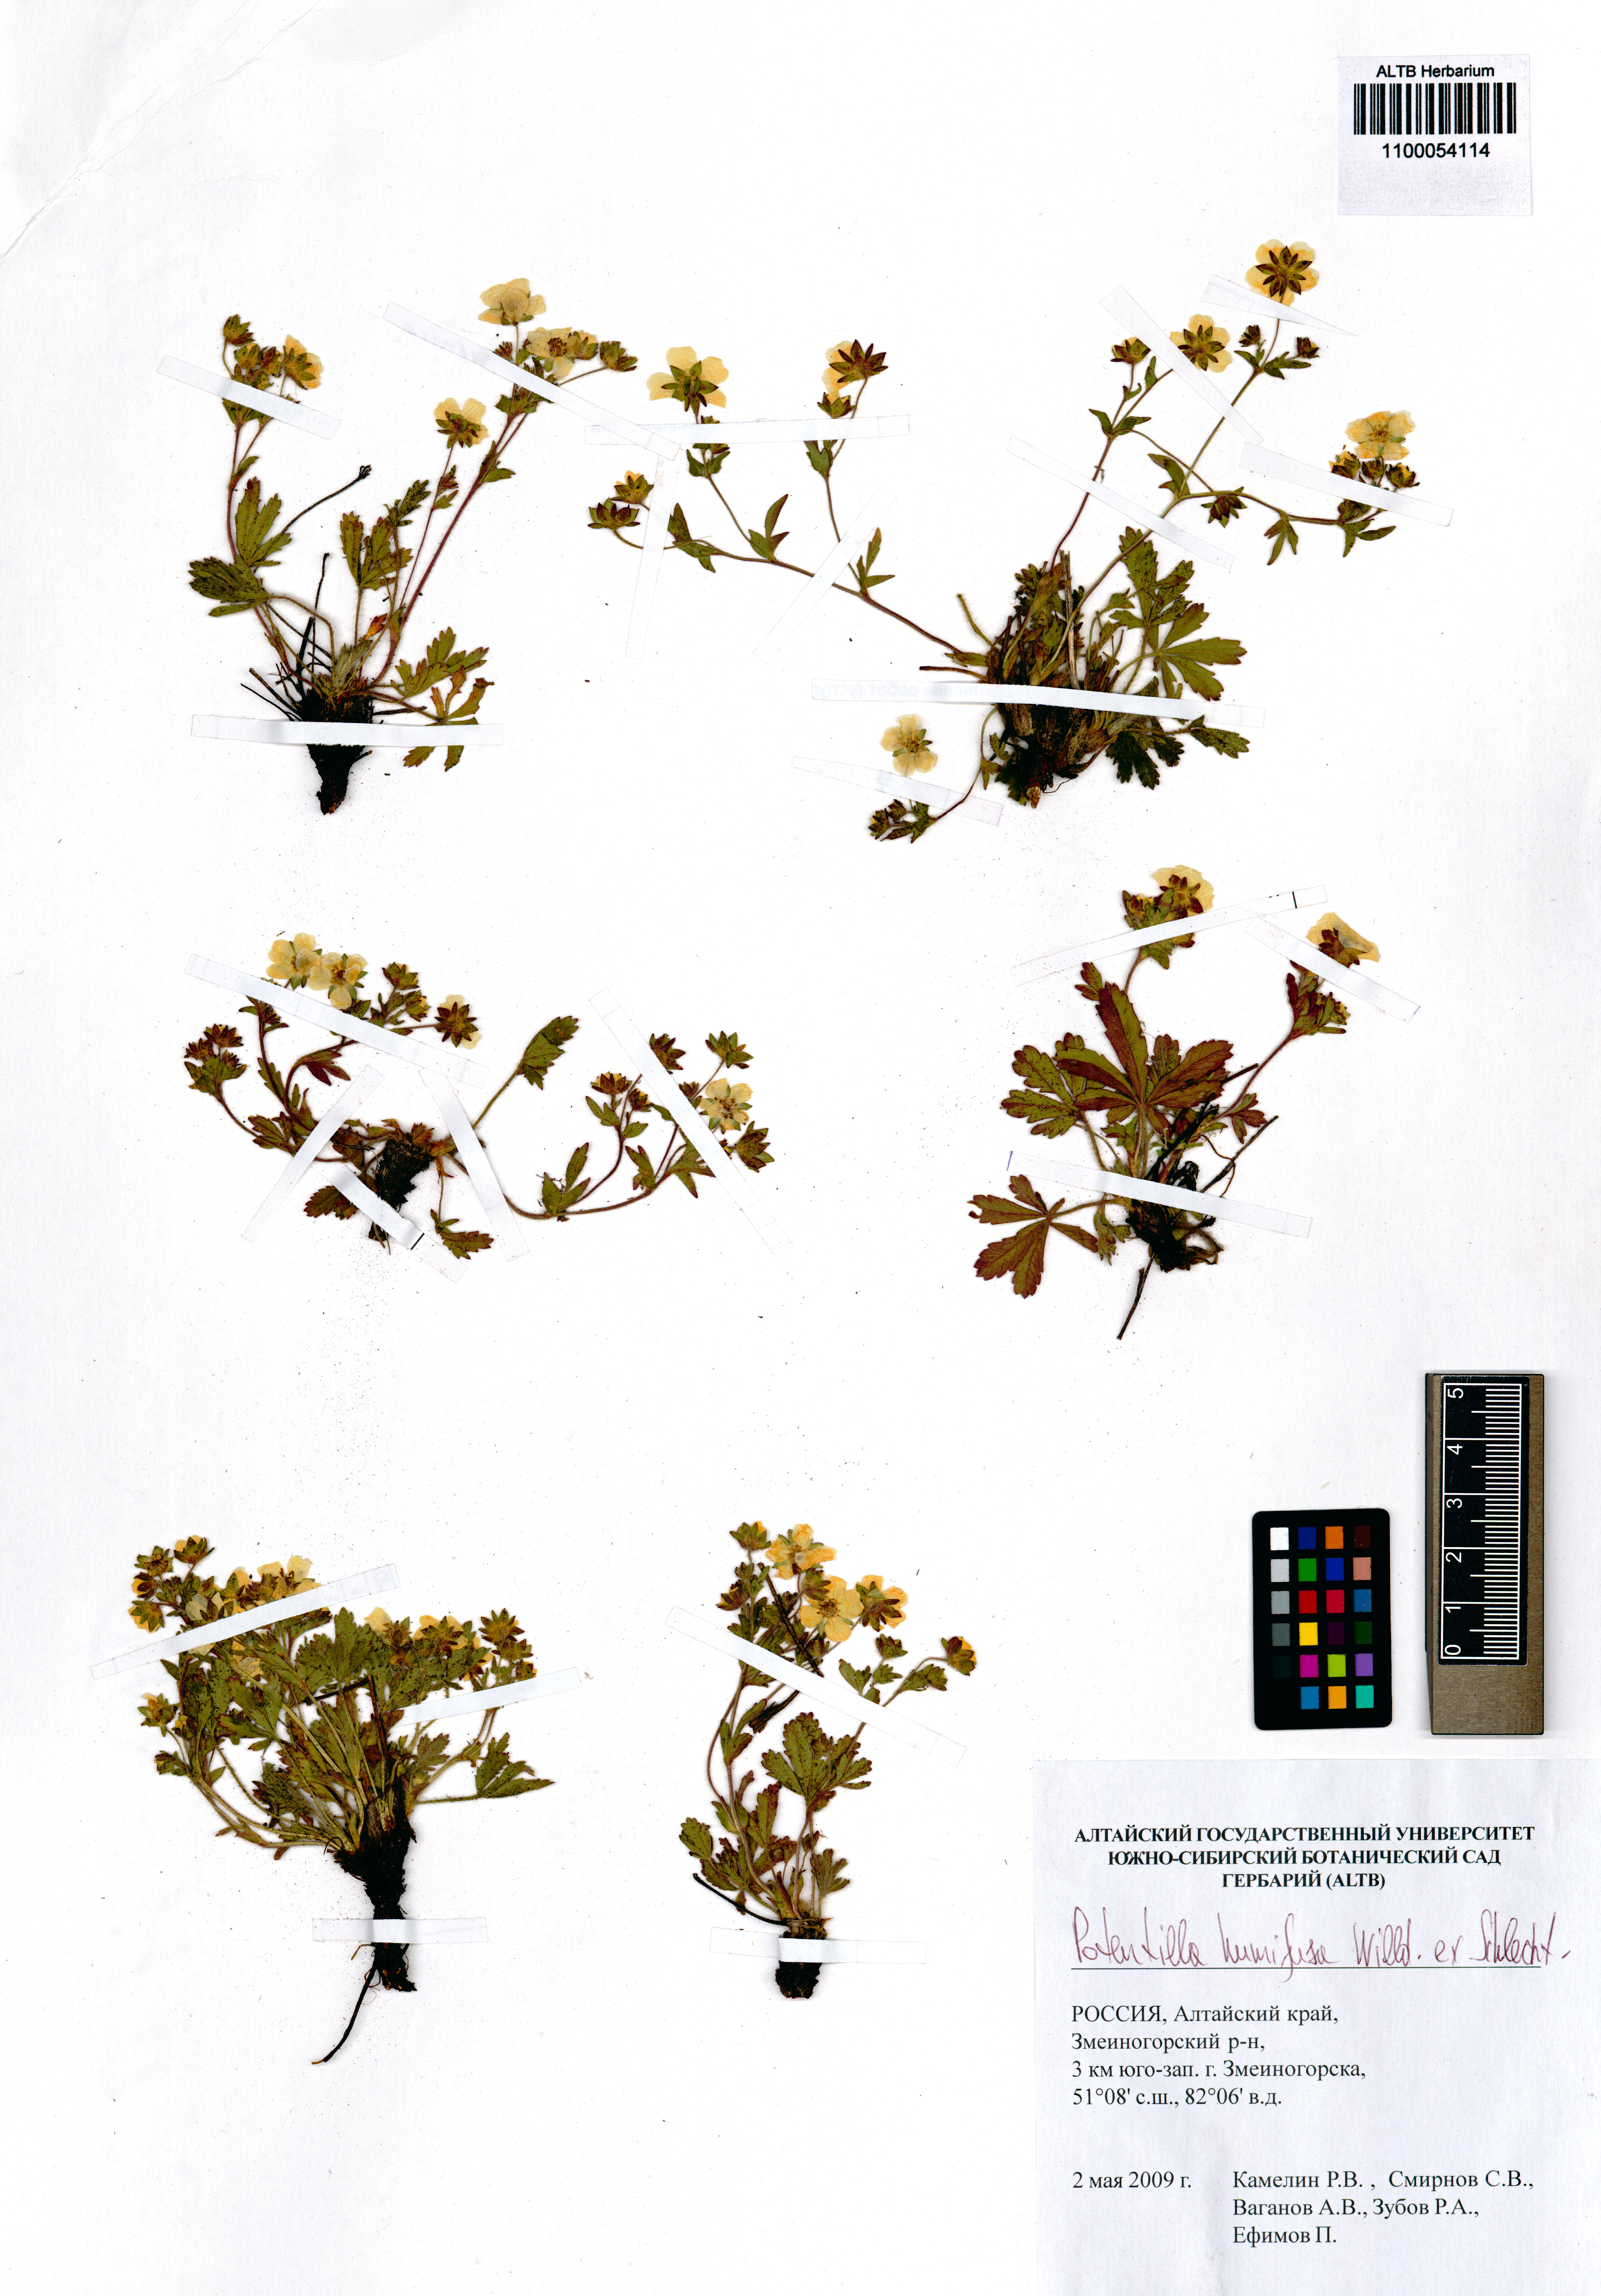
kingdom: Plantae
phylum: Tracheophyta
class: Magnoliopsida
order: Rosales
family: Rosaceae
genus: Potentilla
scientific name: Potentilla humifusa
